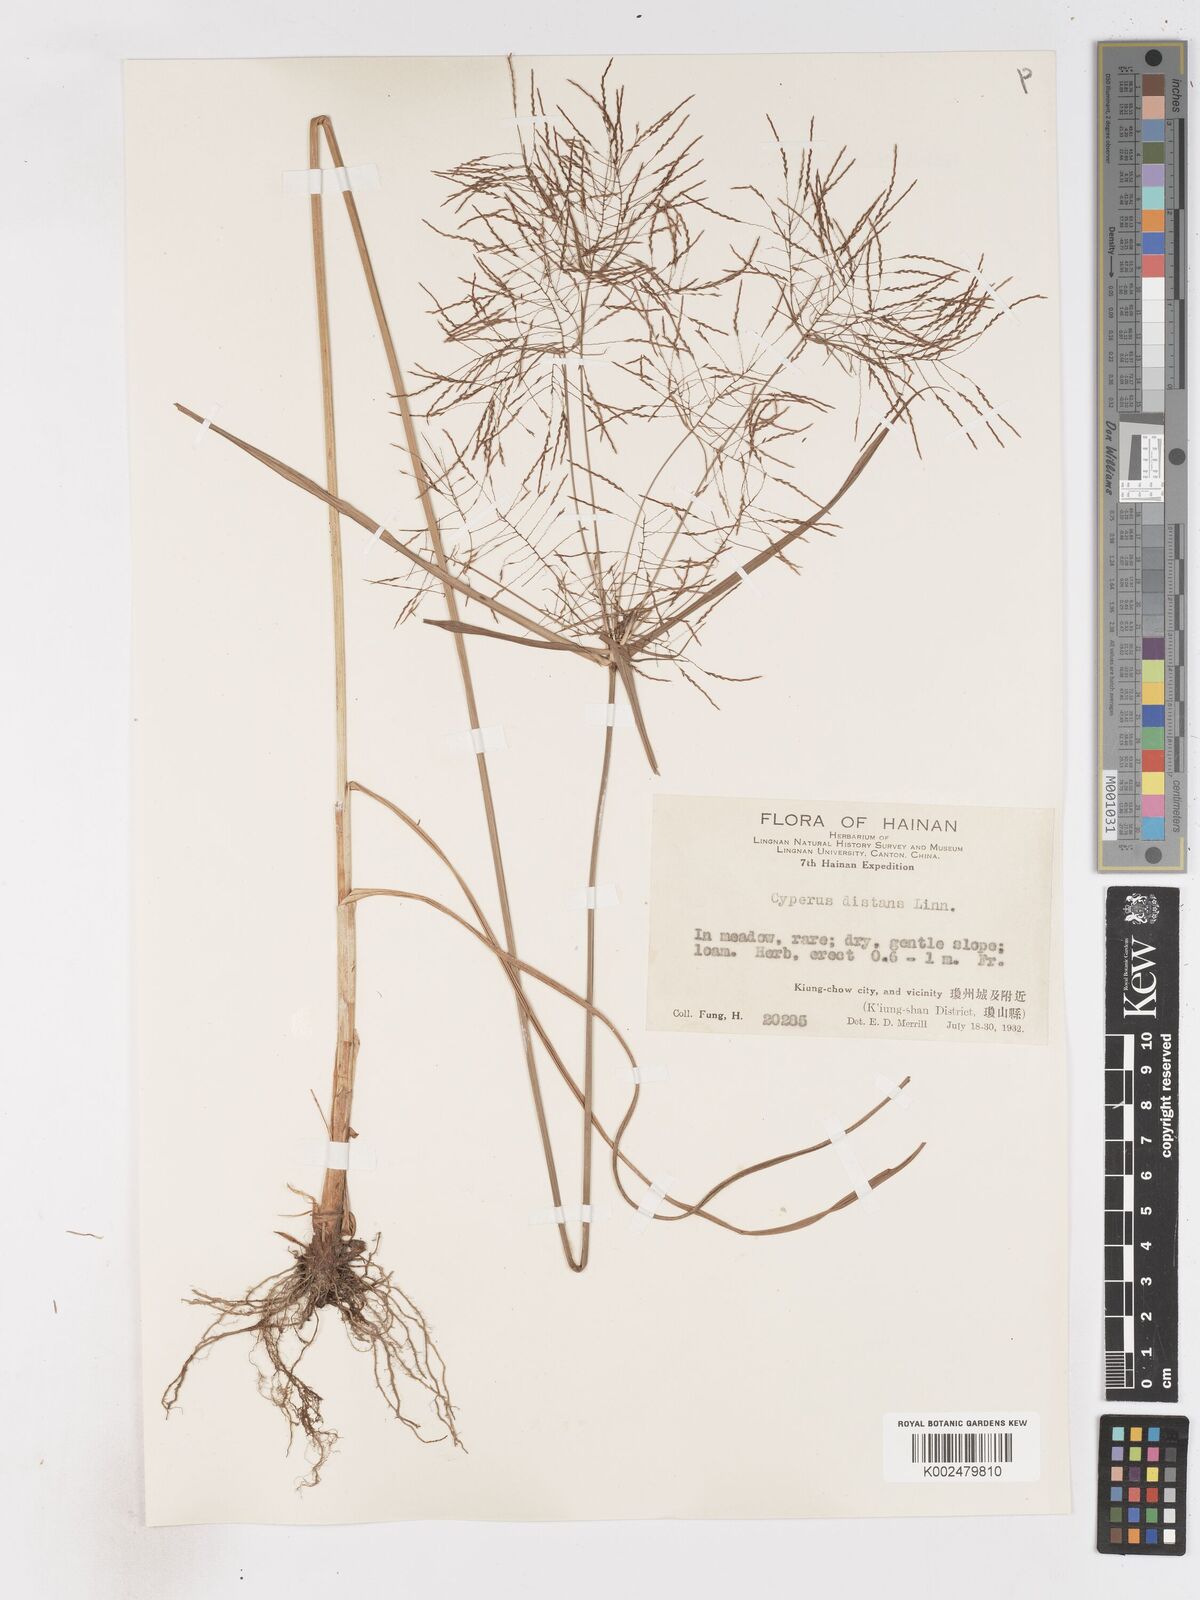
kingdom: Plantae
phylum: Tracheophyta
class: Liliopsida
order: Poales
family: Cyperaceae
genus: Cyperus
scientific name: Cyperus distans
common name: Slender cyperus
